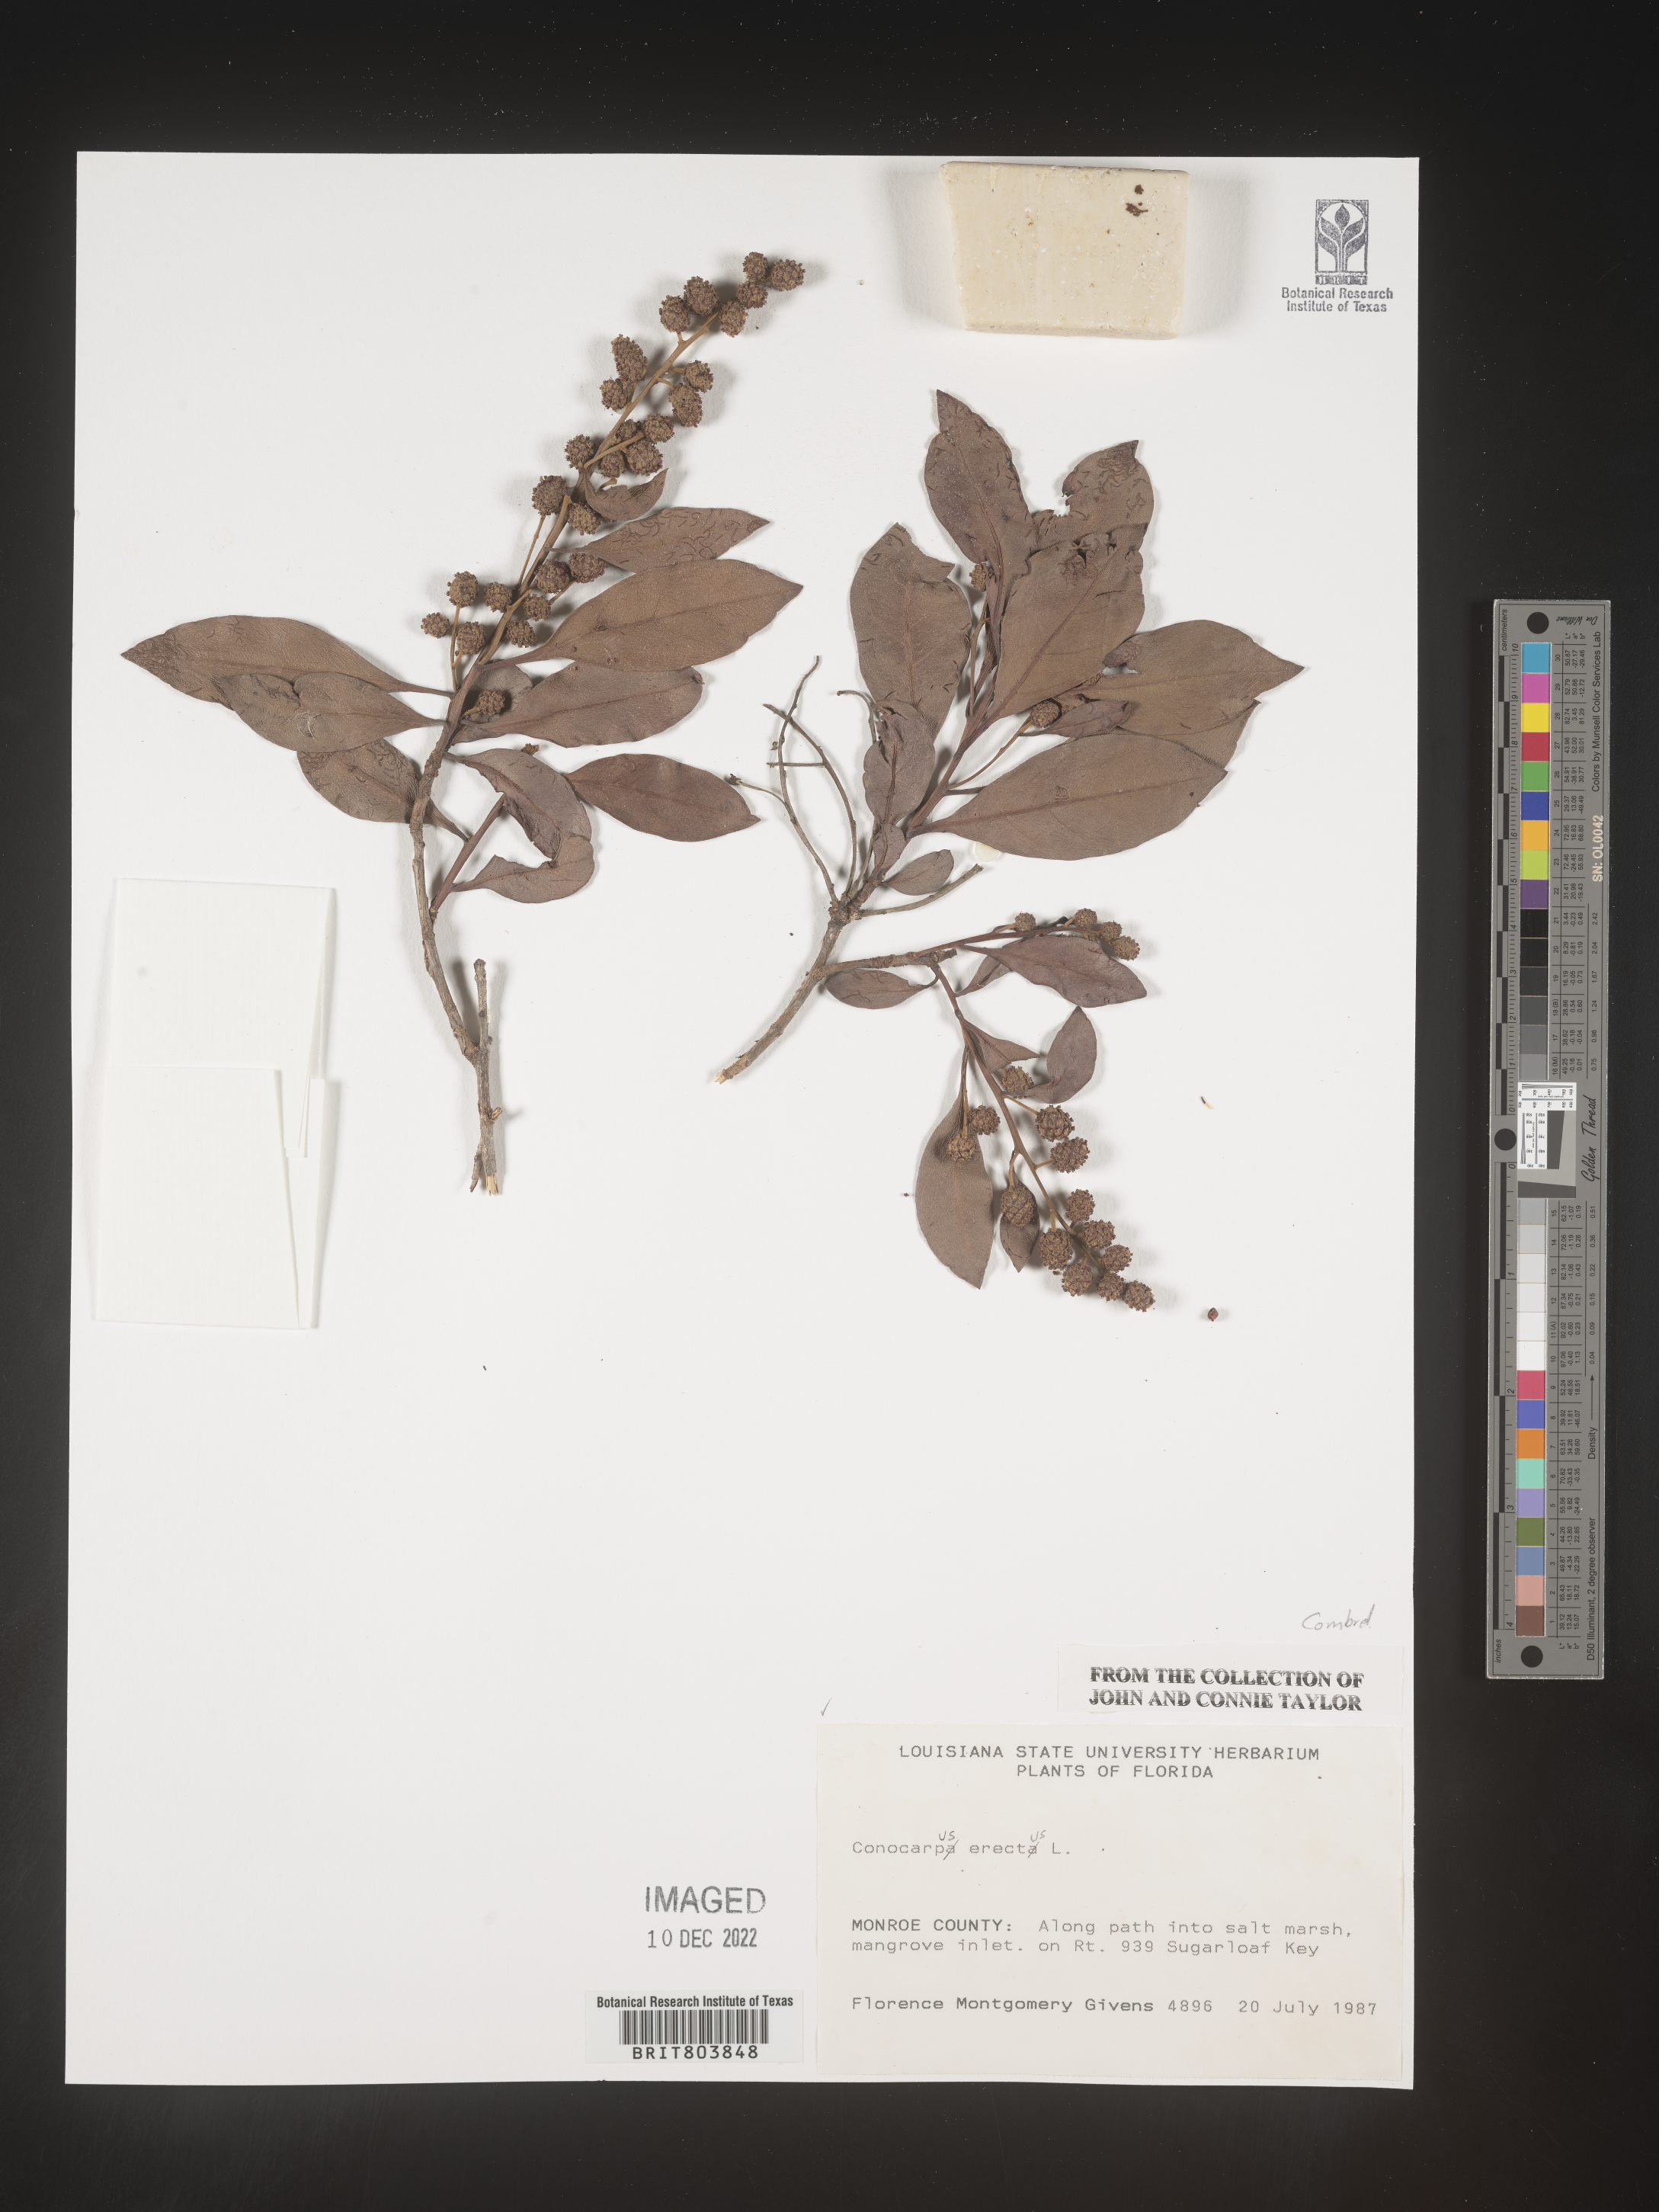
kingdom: Plantae
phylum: Tracheophyta
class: Magnoliopsida
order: Myrtales
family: Combretaceae
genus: Conocarpus
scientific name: Conocarpus erectus
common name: Button mangrove
